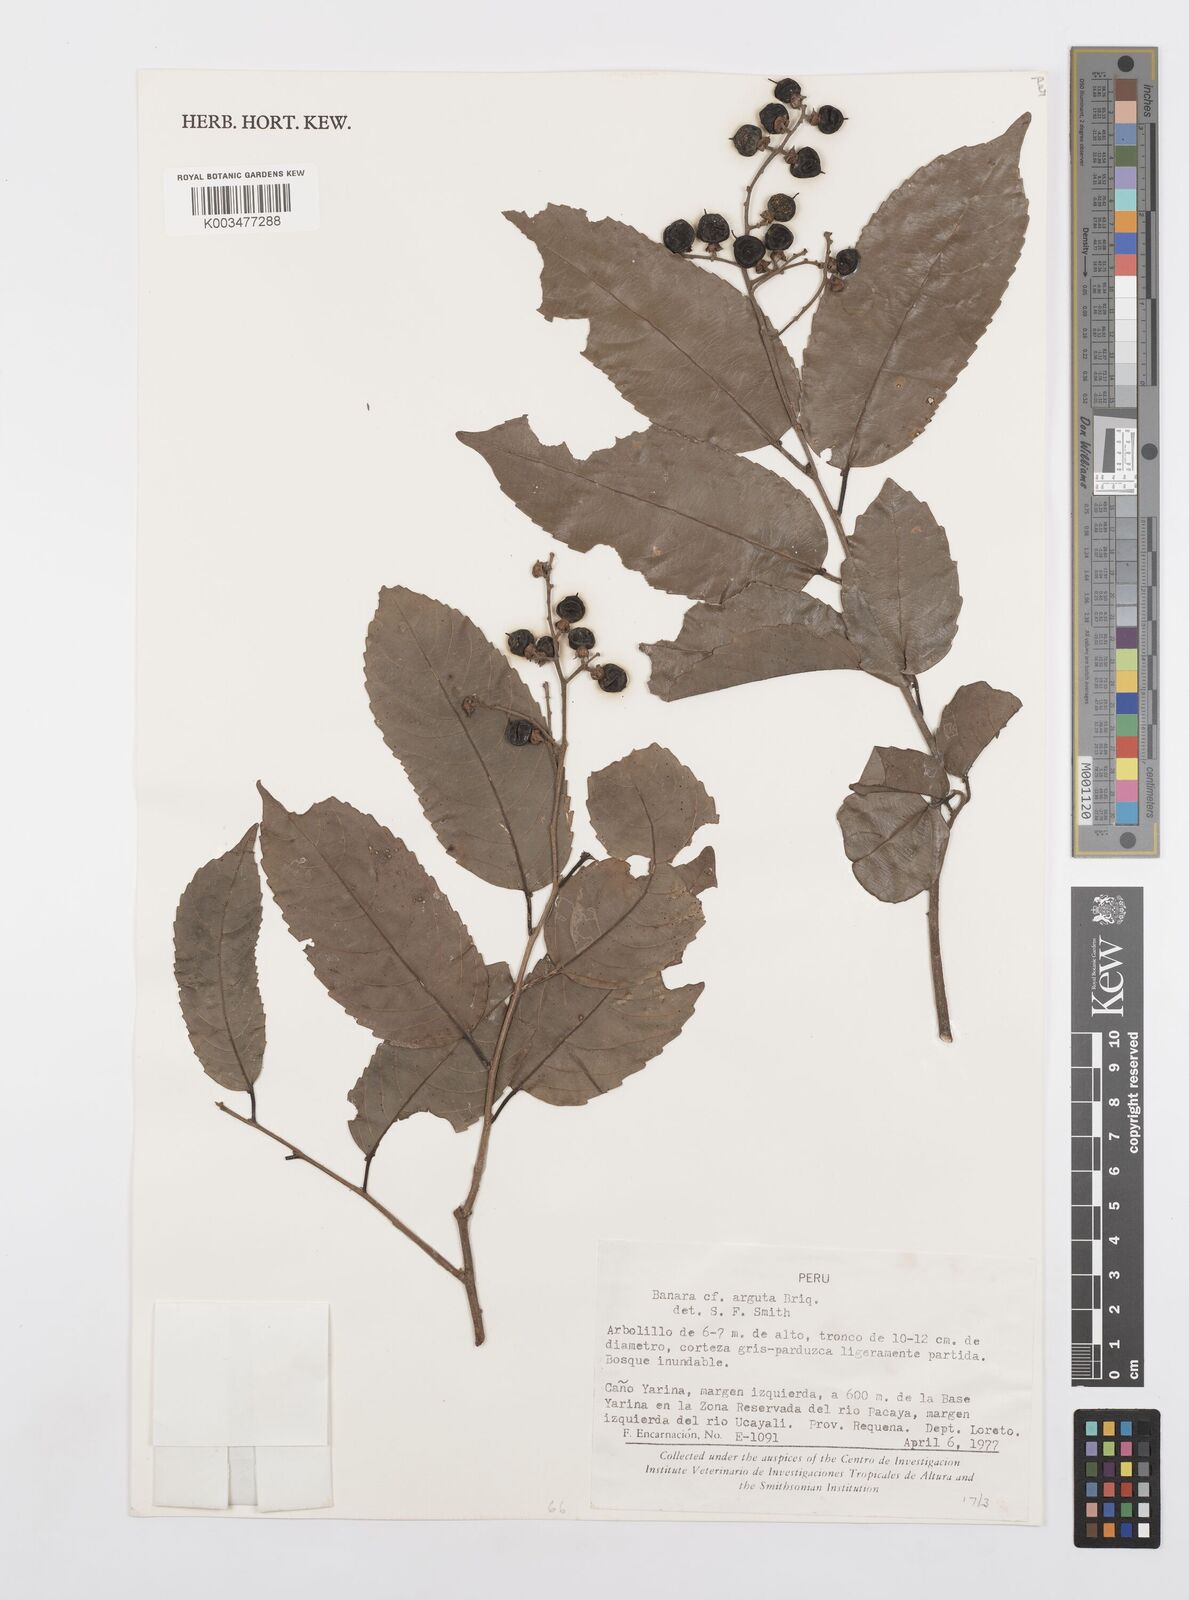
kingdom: Plantae
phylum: Tracheophyta
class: Magnoliopsida
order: Malpighiales
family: Salicaceae
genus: Banara
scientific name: Banara arguta
